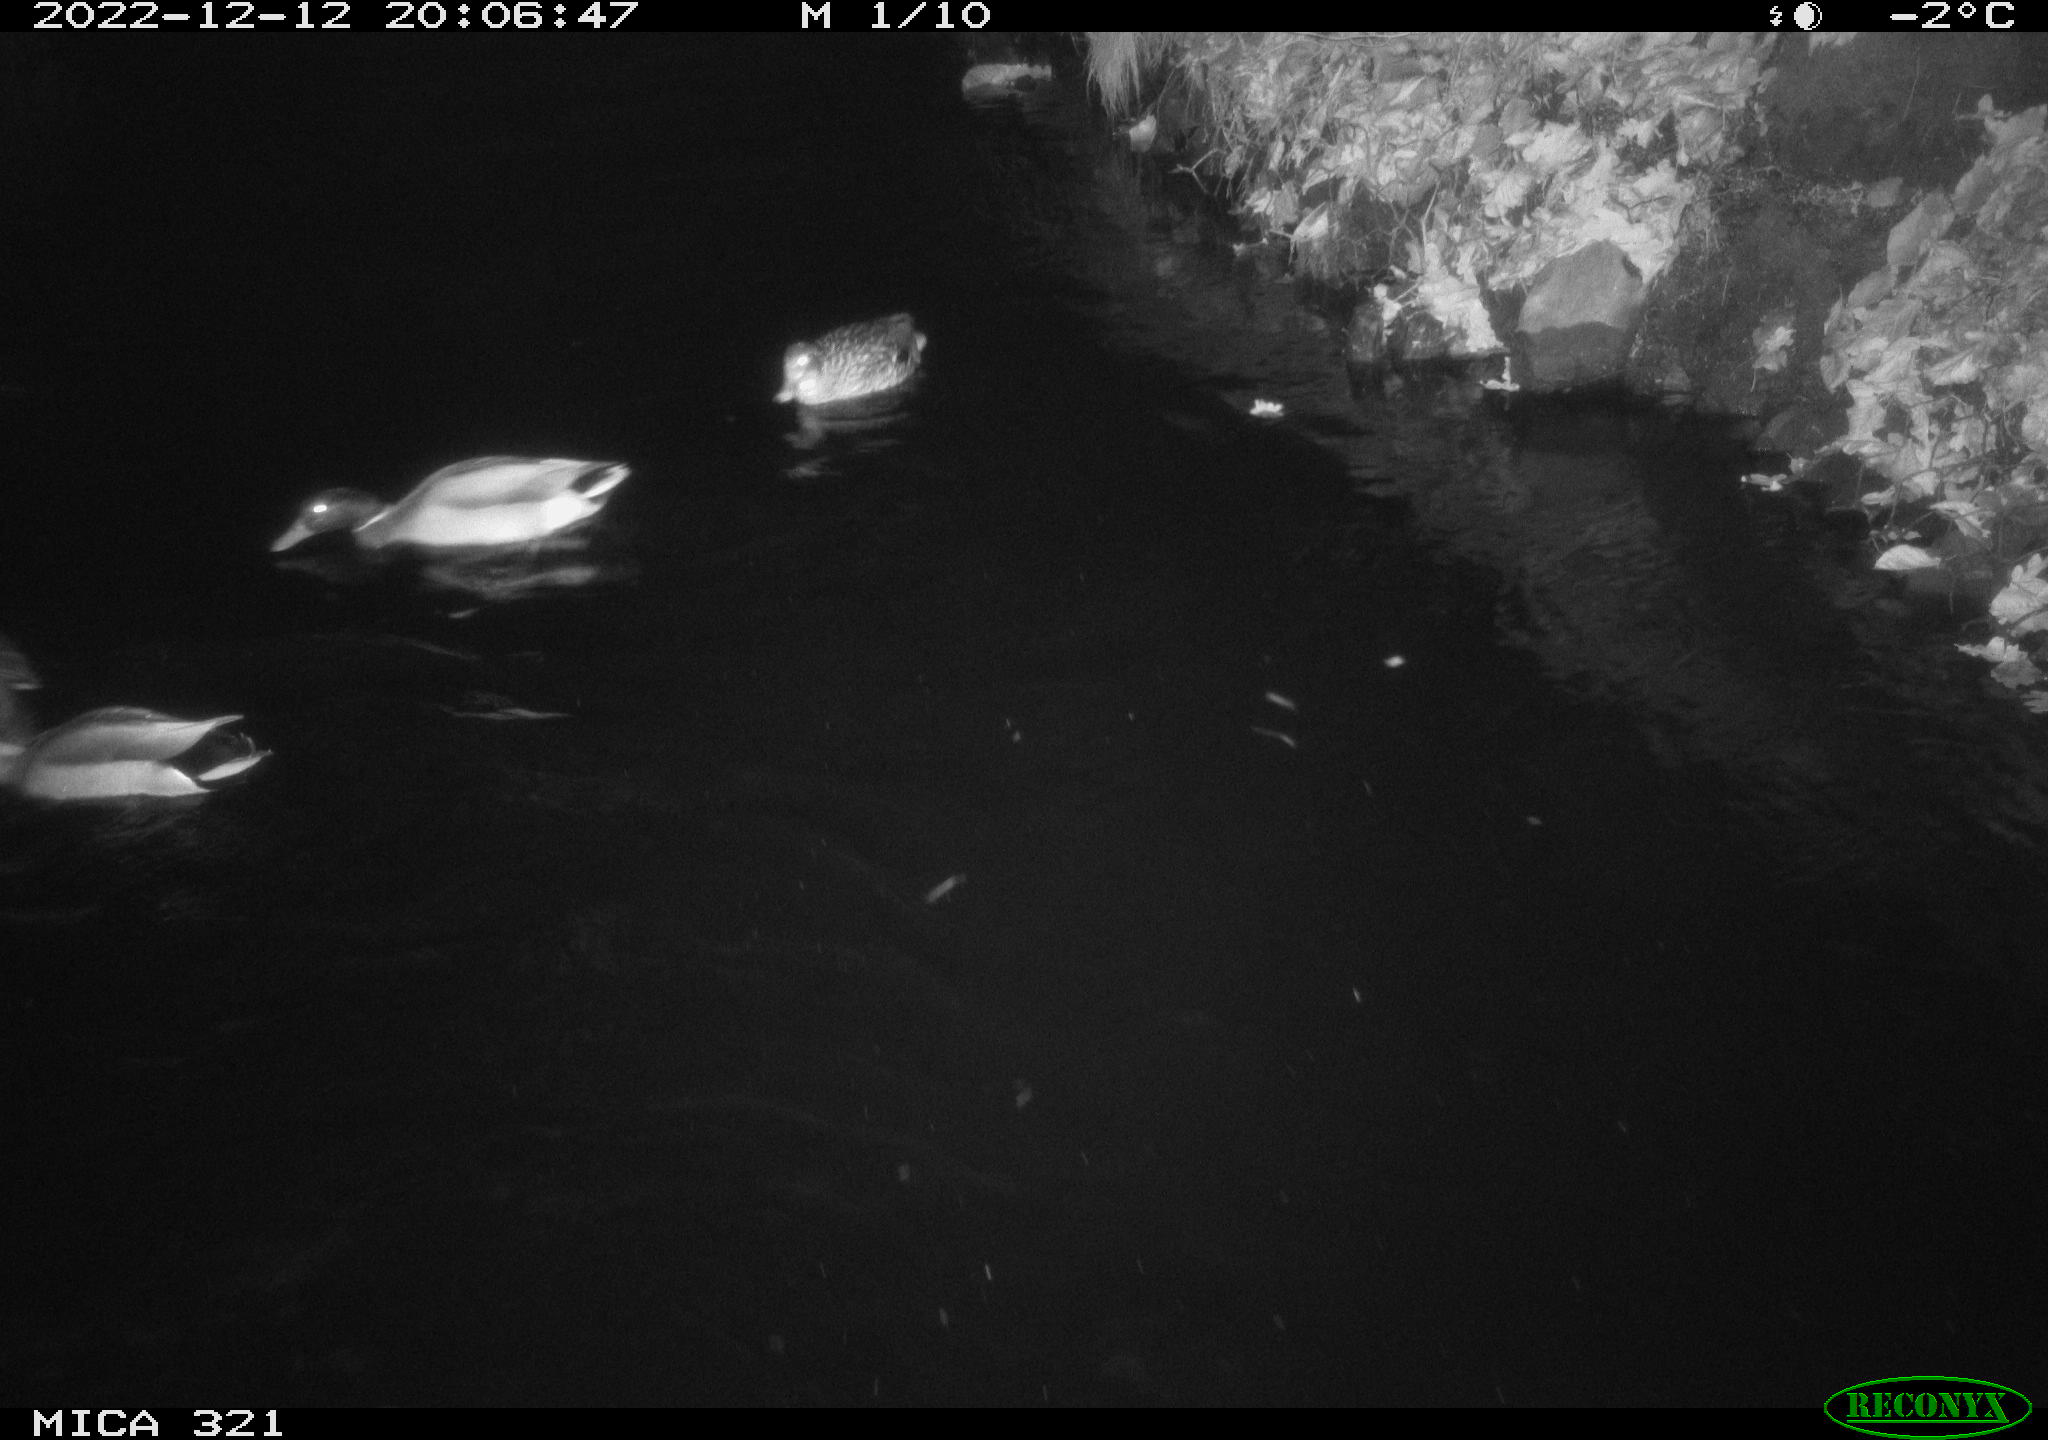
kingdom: Animalia
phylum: Chordata
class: Mammalia
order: Rodentia
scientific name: Rodentia
